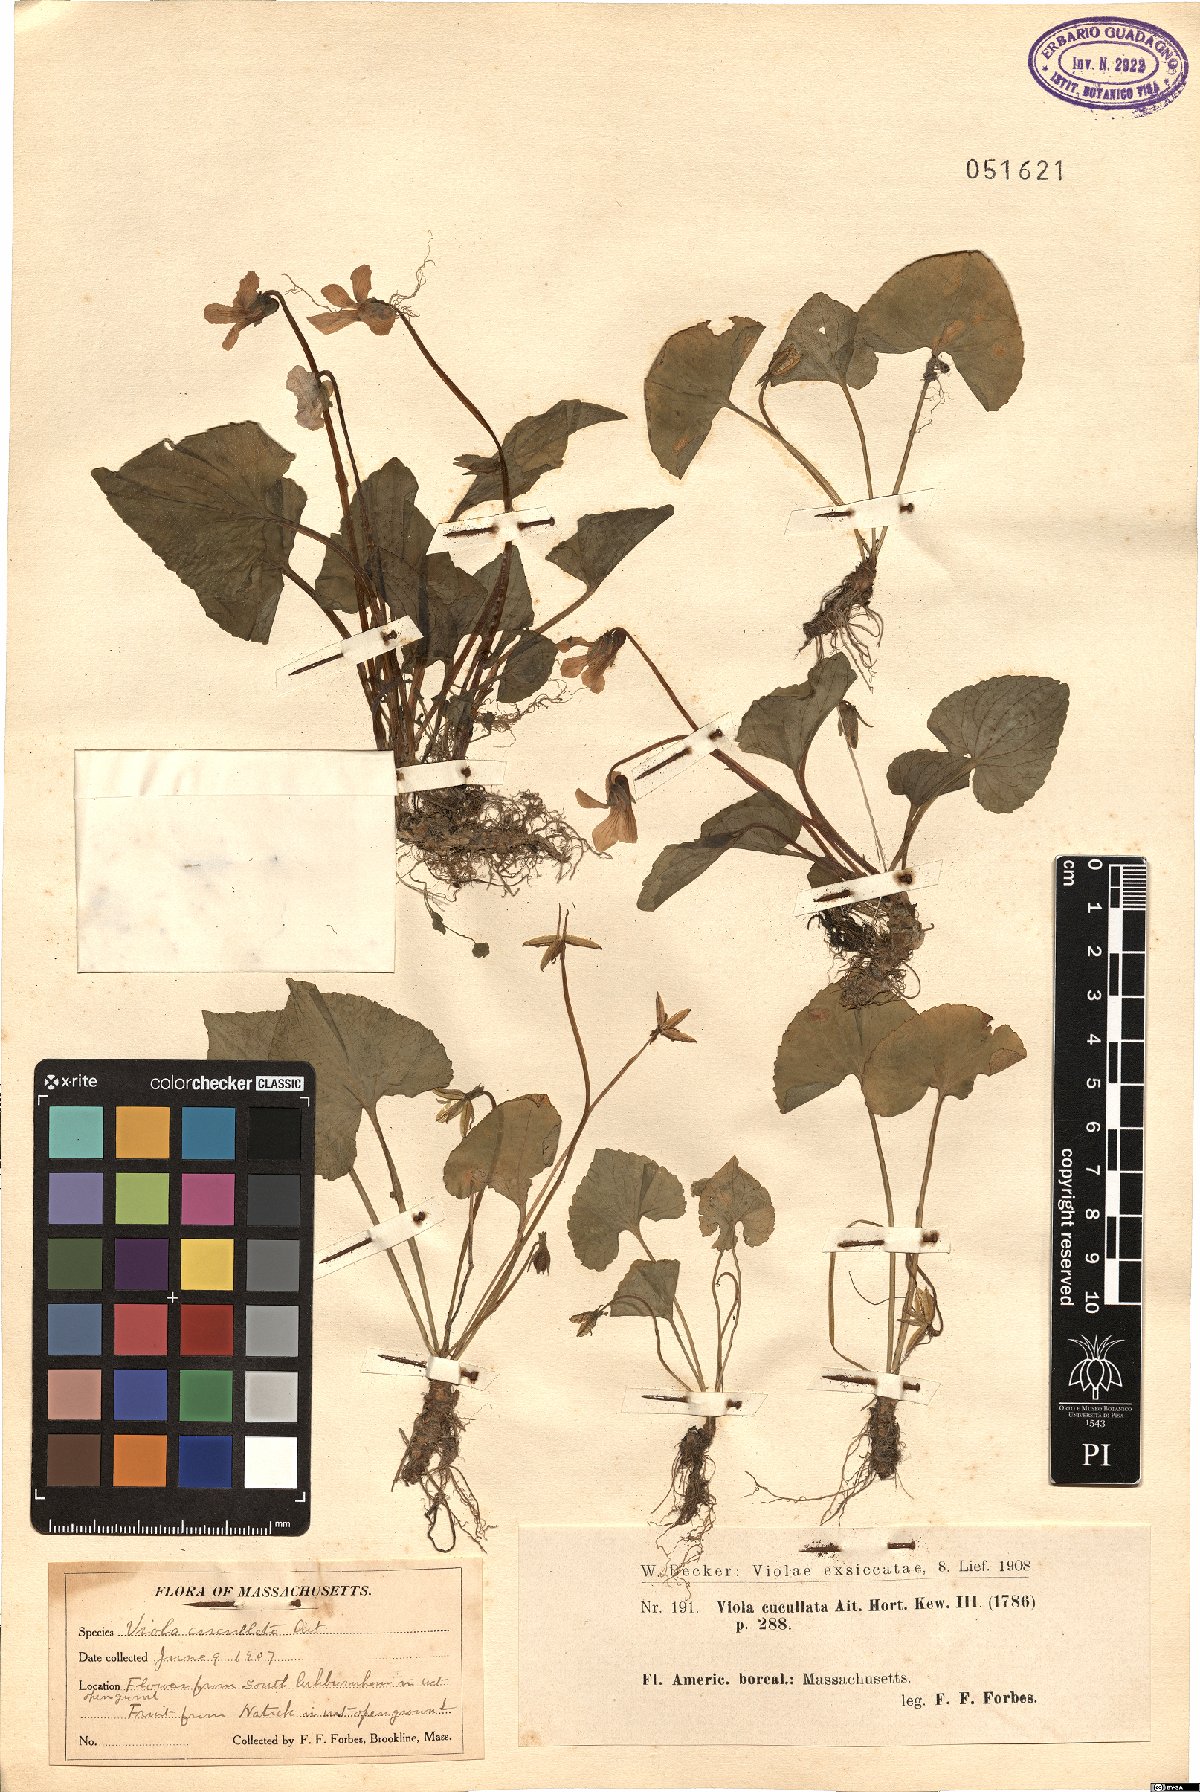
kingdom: Plantae
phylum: Tracheophyta
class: Magnoliopsida
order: Malpighiales
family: Violaceae
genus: Viola
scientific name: Viola cucullata
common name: Marsh blue violet
